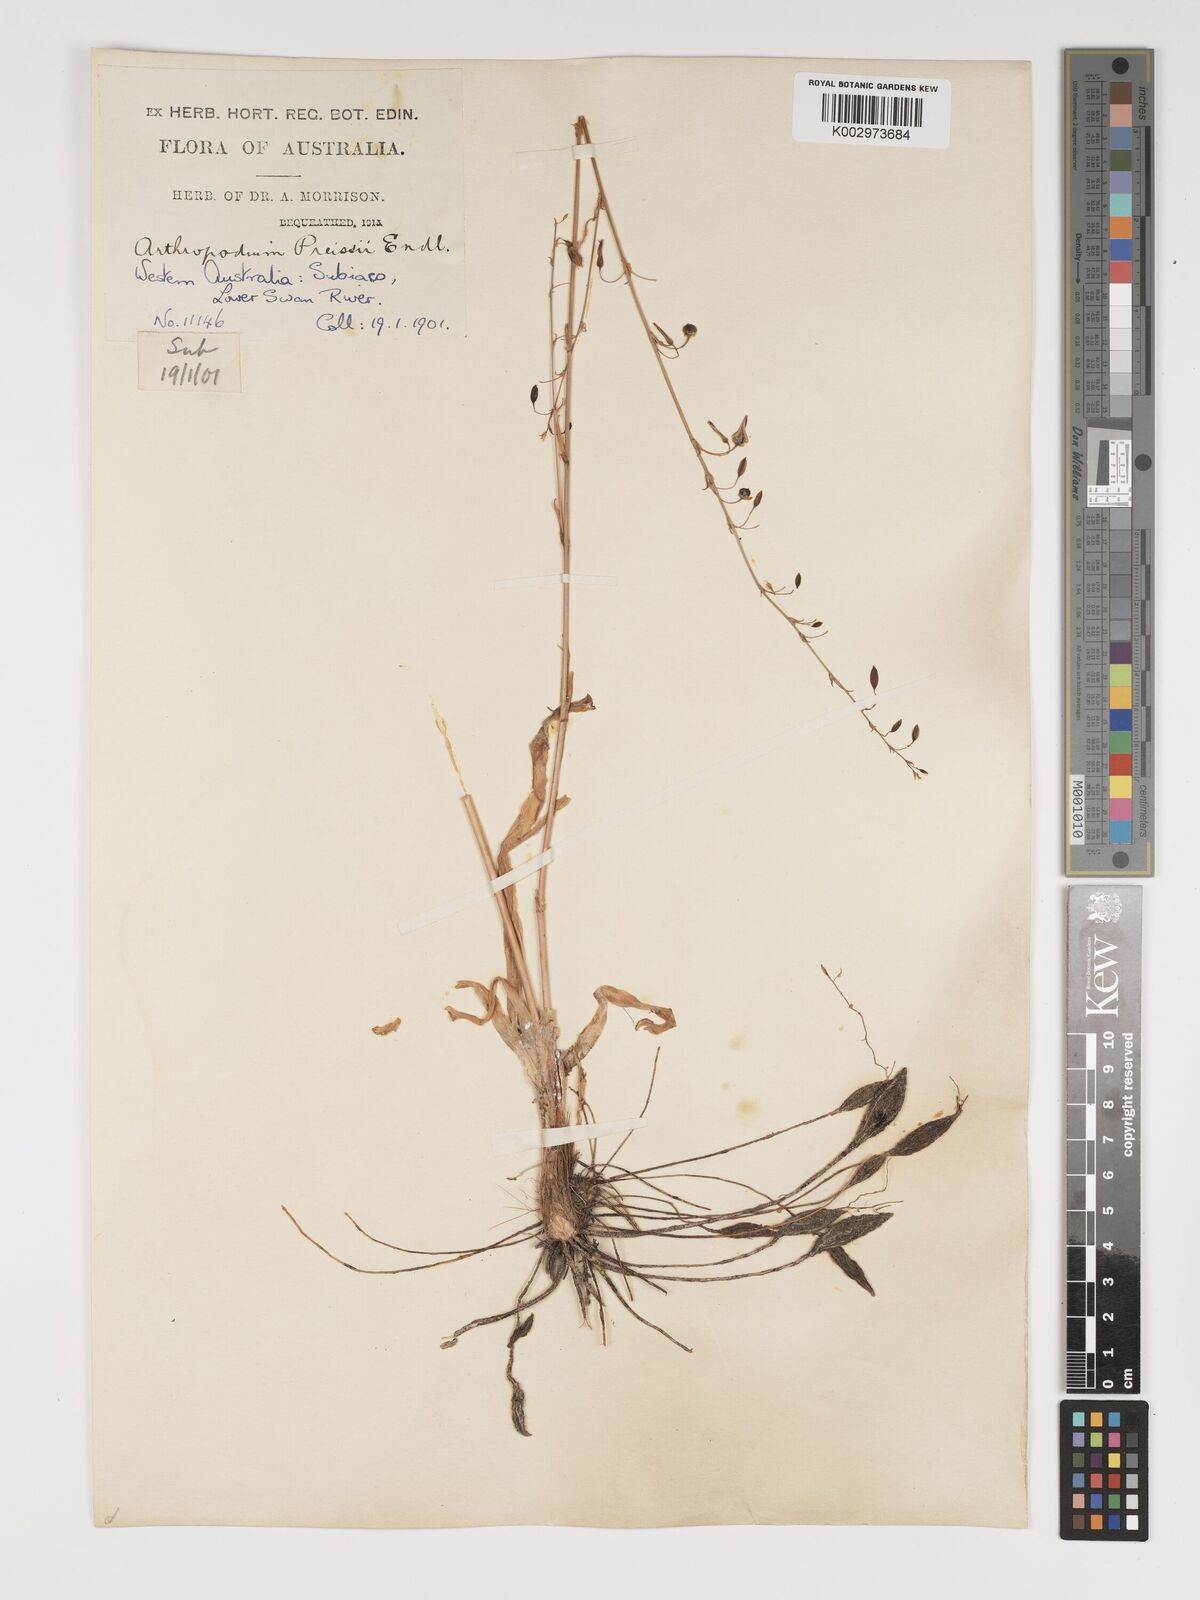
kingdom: Plantae
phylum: Tracheophyta
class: Liliopsida
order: Asparagales
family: Asparagaceae
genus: Dichopogon
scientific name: Dichopogon capillipes
